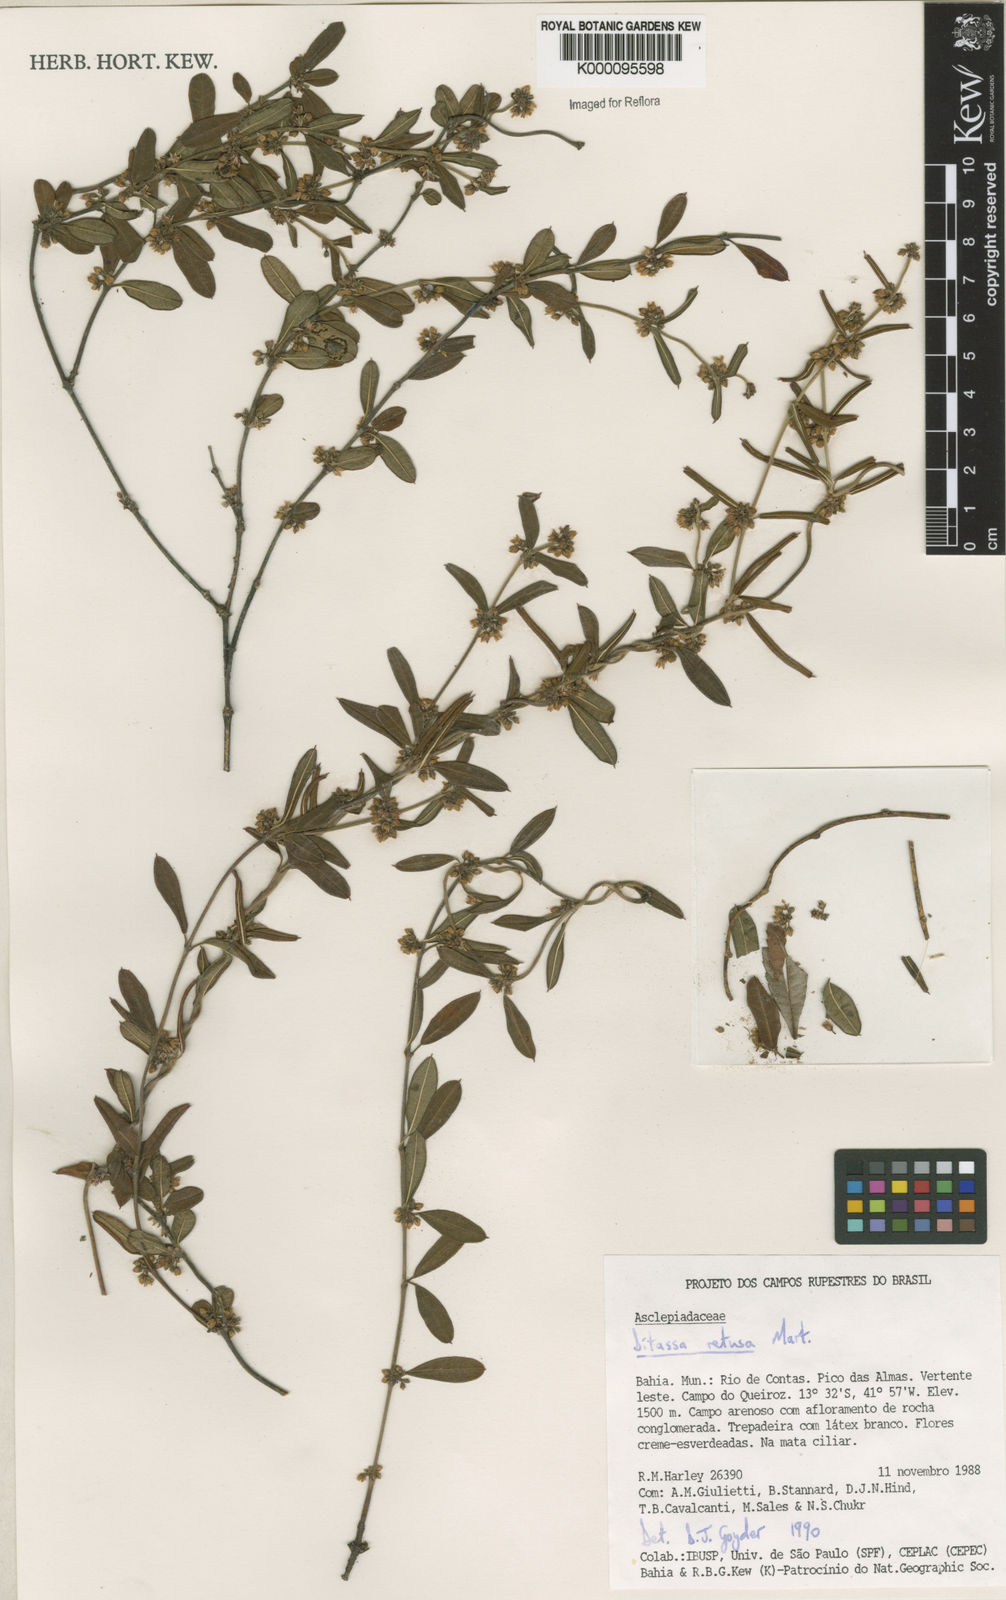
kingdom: Plantae
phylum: Tracheophyta
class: Magnoliopsida
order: Gentianales
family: Apocynaceae
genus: Ditassa
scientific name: Ditassa retusa
